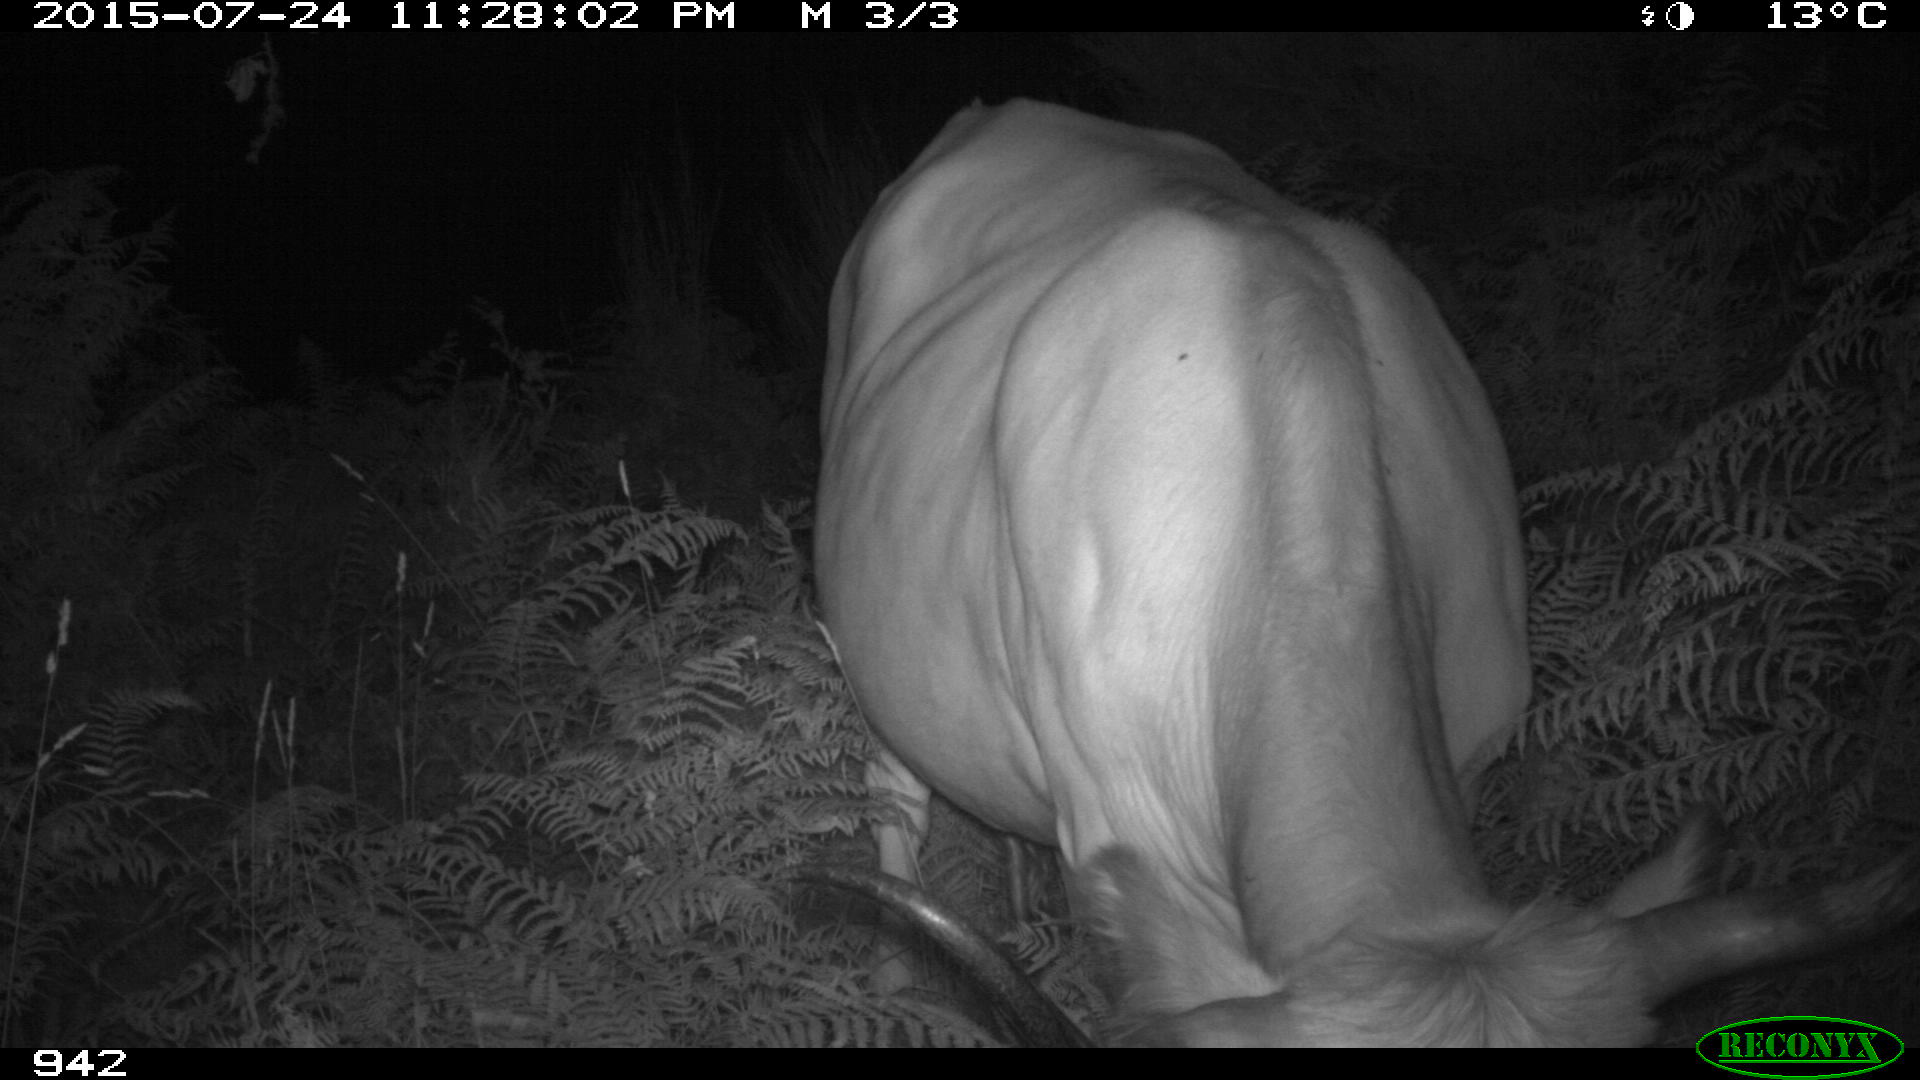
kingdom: Animalia
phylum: Chordata
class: Mammalia
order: Artiodactyla
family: Bovidae
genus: Bos
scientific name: Bos taurus
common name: Domesticated cattle
